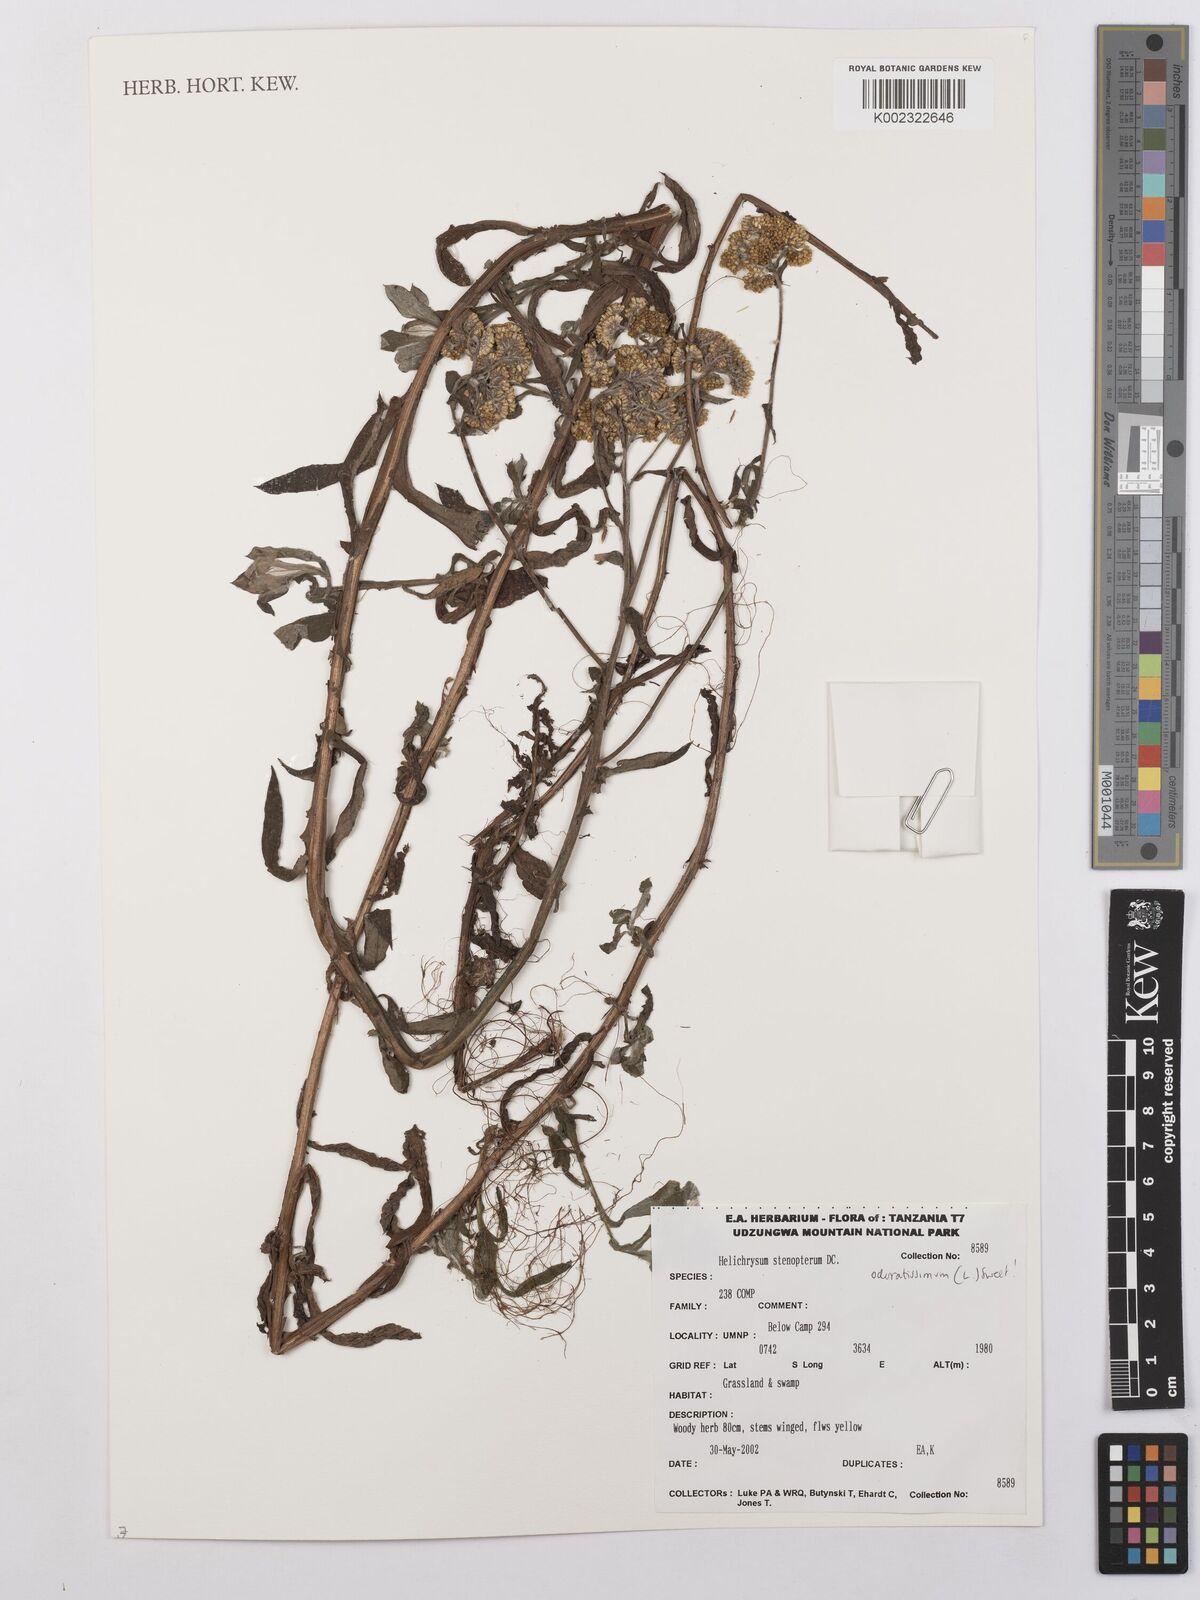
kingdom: Plantae
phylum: Tracheophyta
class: Magnoliopsida
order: Asterales
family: Asteraceae
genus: Helichrysum
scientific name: Helichrysum stenopterum
